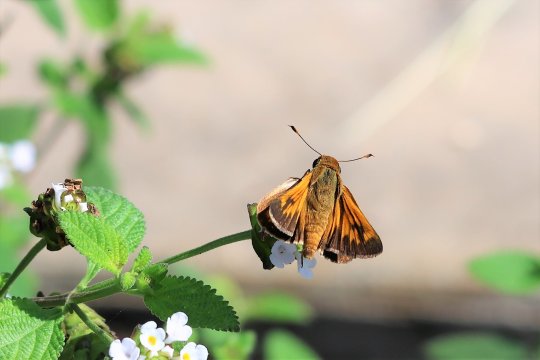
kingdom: Animalia
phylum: Arthropoda
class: Insecta
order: Lepidoptera
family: Hesperiidae
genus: Mellana
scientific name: Mellana eulogius
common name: Common Mellana
